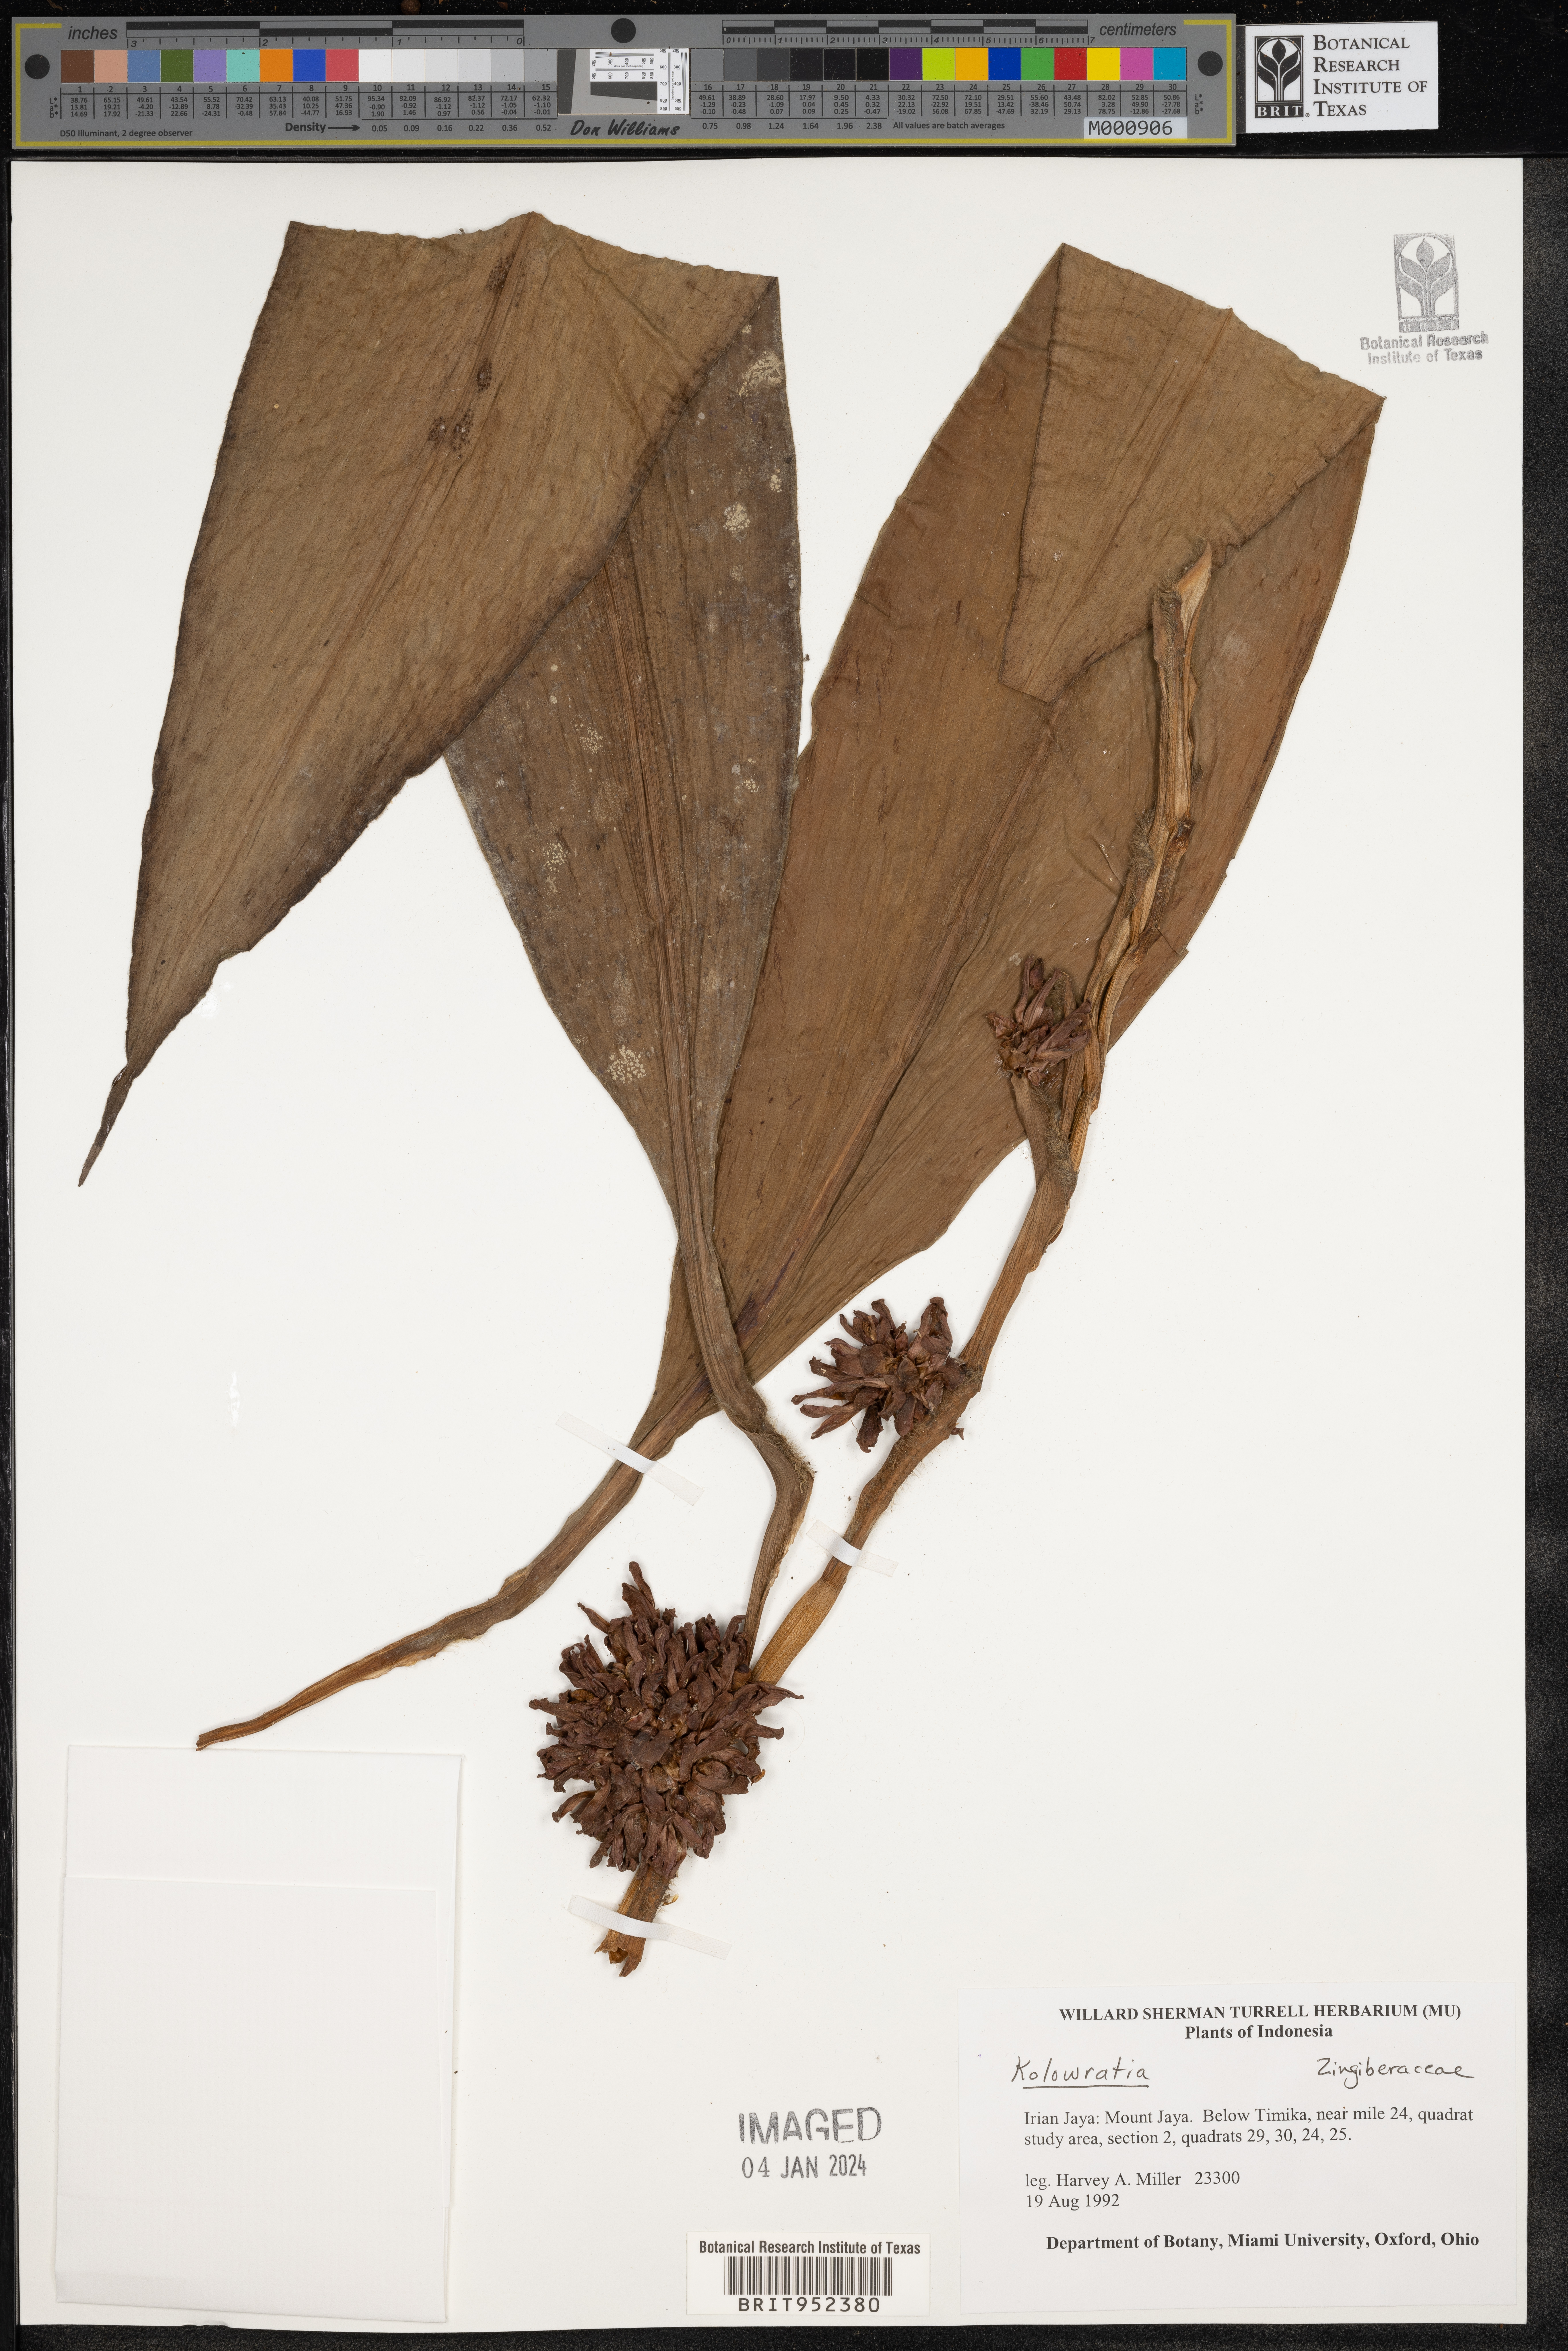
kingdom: Plantae
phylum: Tracheophyta
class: Liliopsida
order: Zingiberales
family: Zingiberaceae
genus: Alpinia
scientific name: Alpinia
